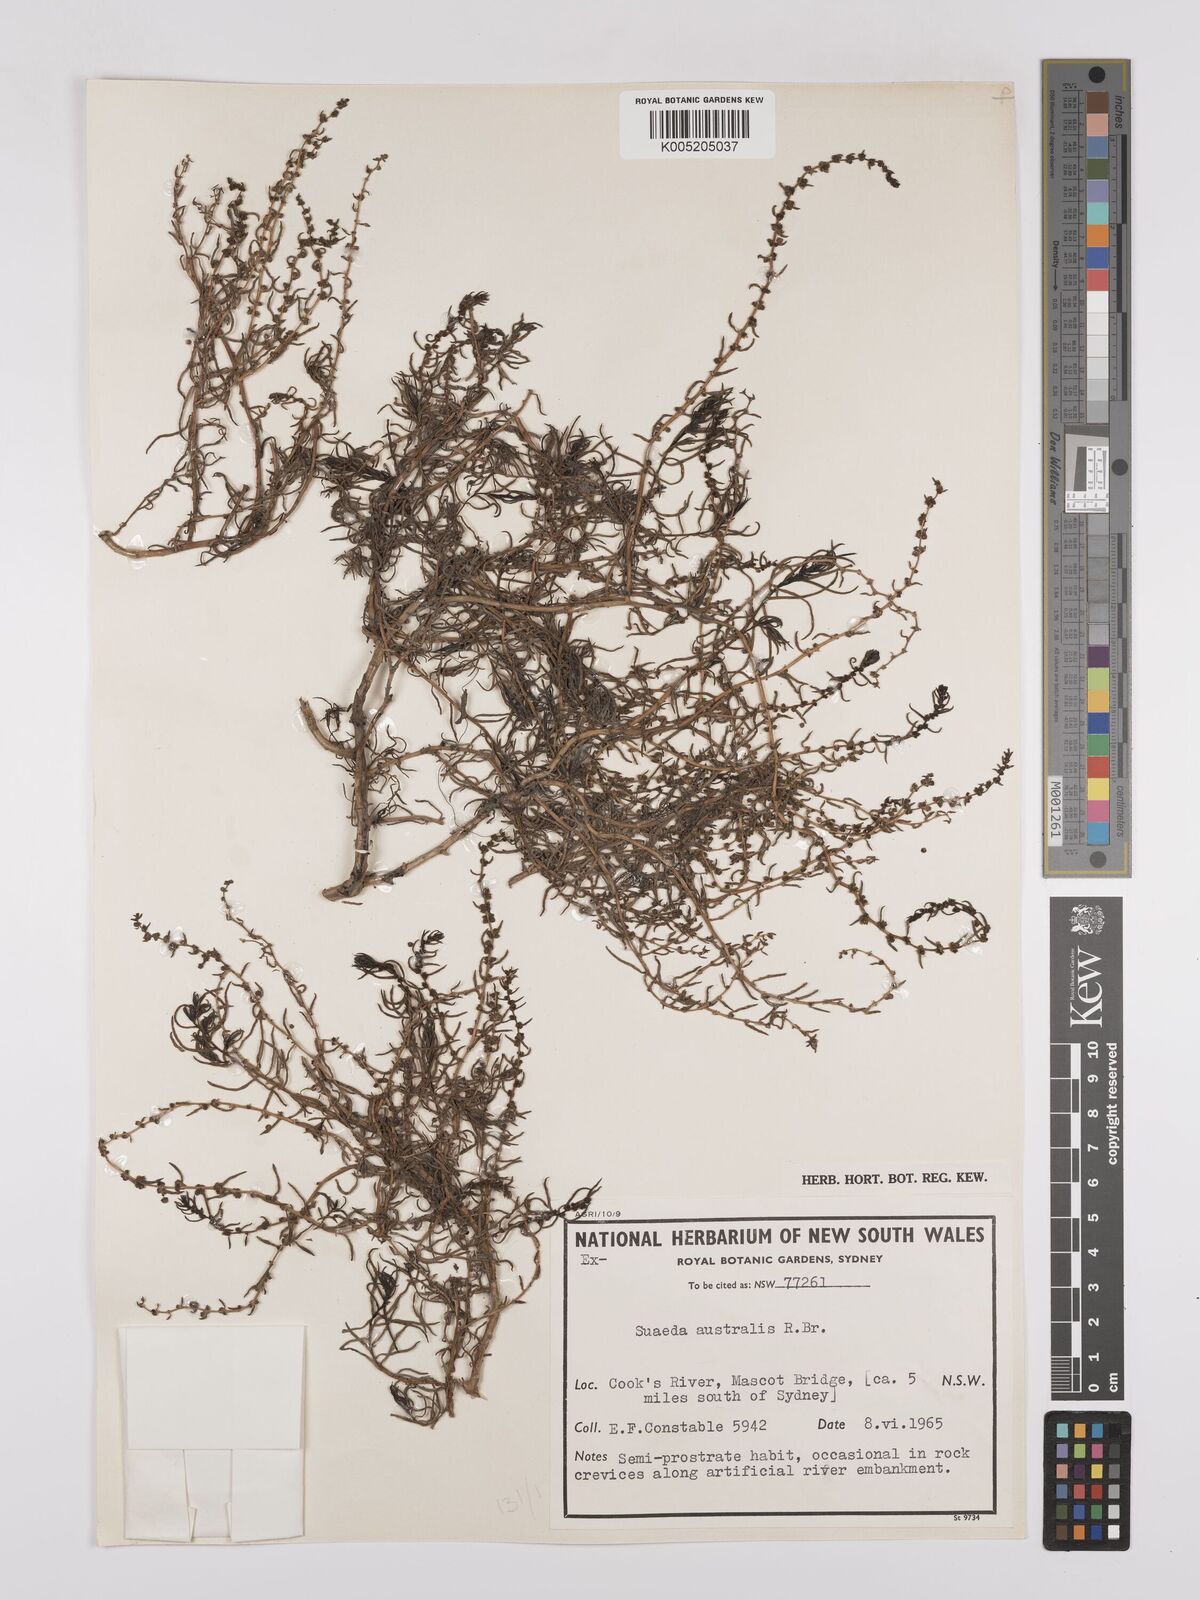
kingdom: Plantae
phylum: Tracheophyta
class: Magnoliopsida
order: Caryophyllales
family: Amaranthaceae
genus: Suaeda
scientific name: Suaeda australis
